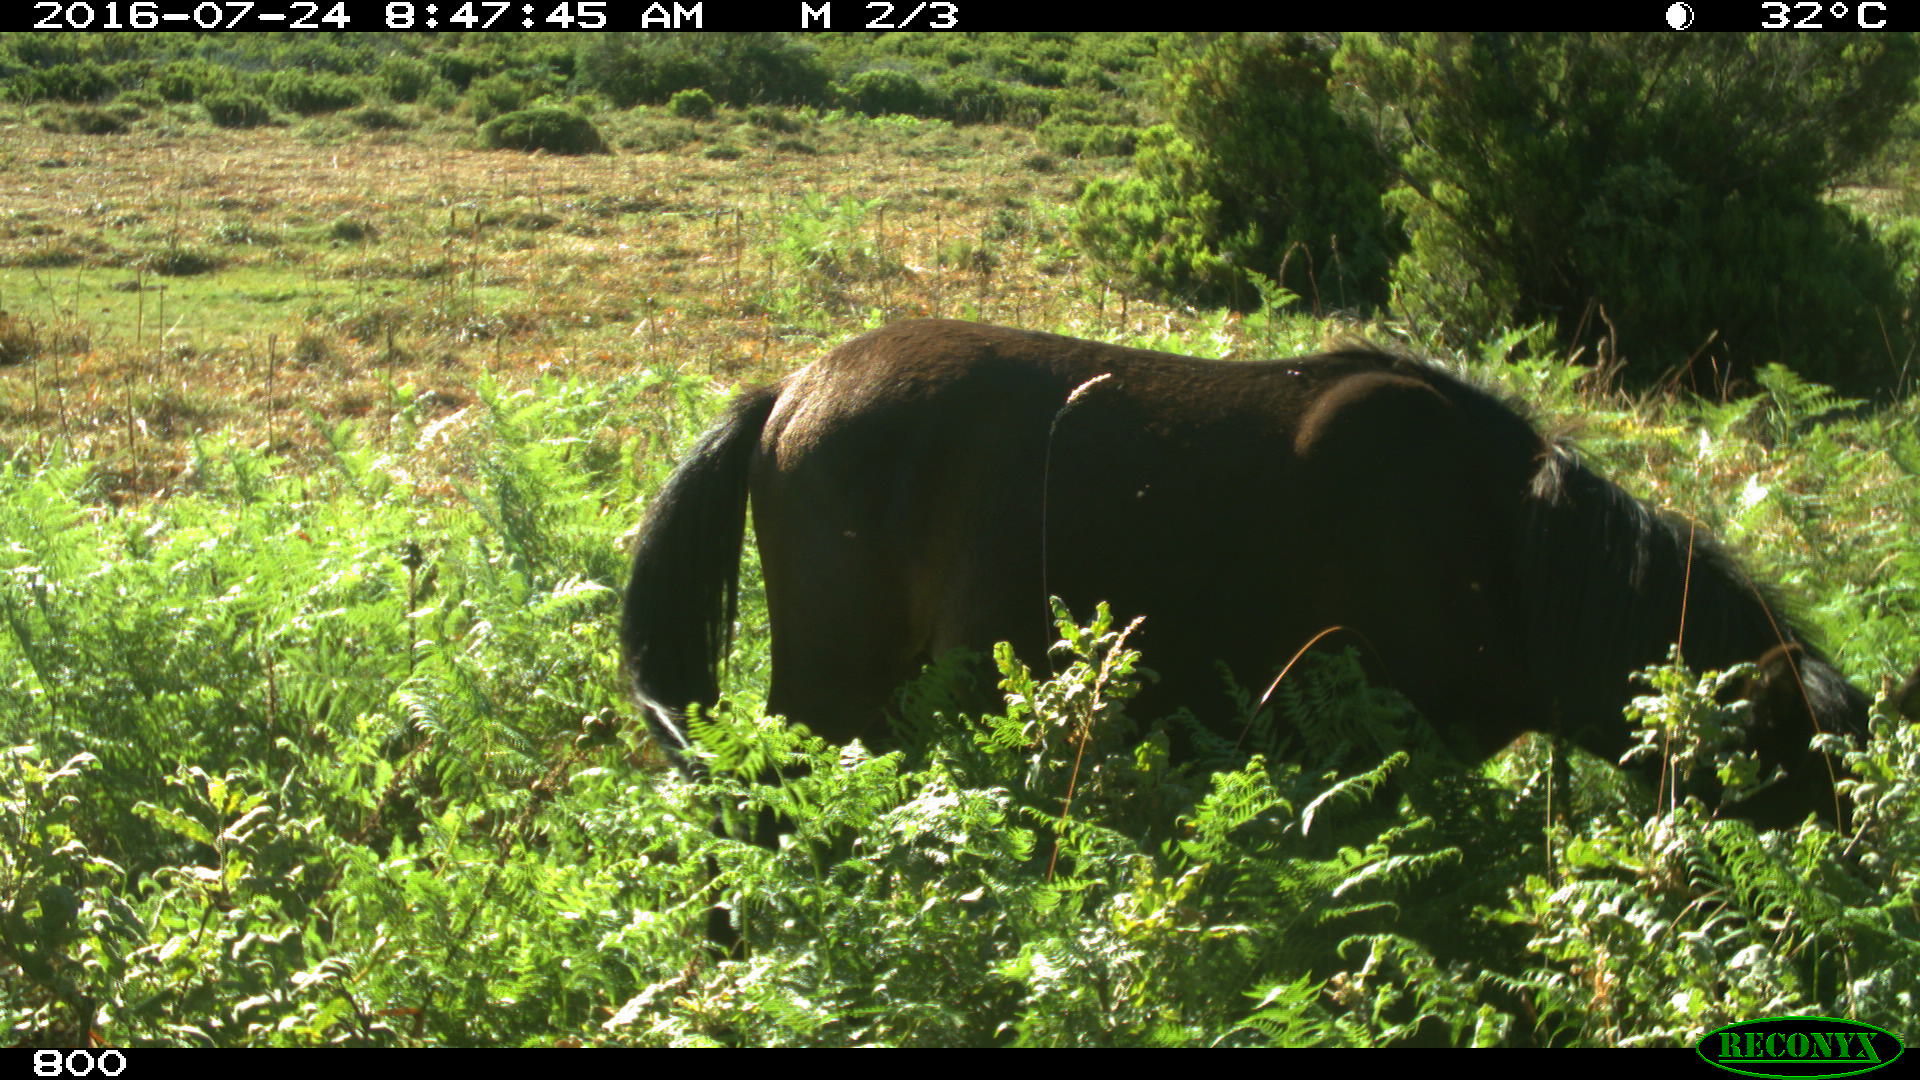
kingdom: Animalia
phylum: Chordata
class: Mammalia
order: Perissodactyla
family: Equidae
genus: Equus
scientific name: Equus caballus
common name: Horse
